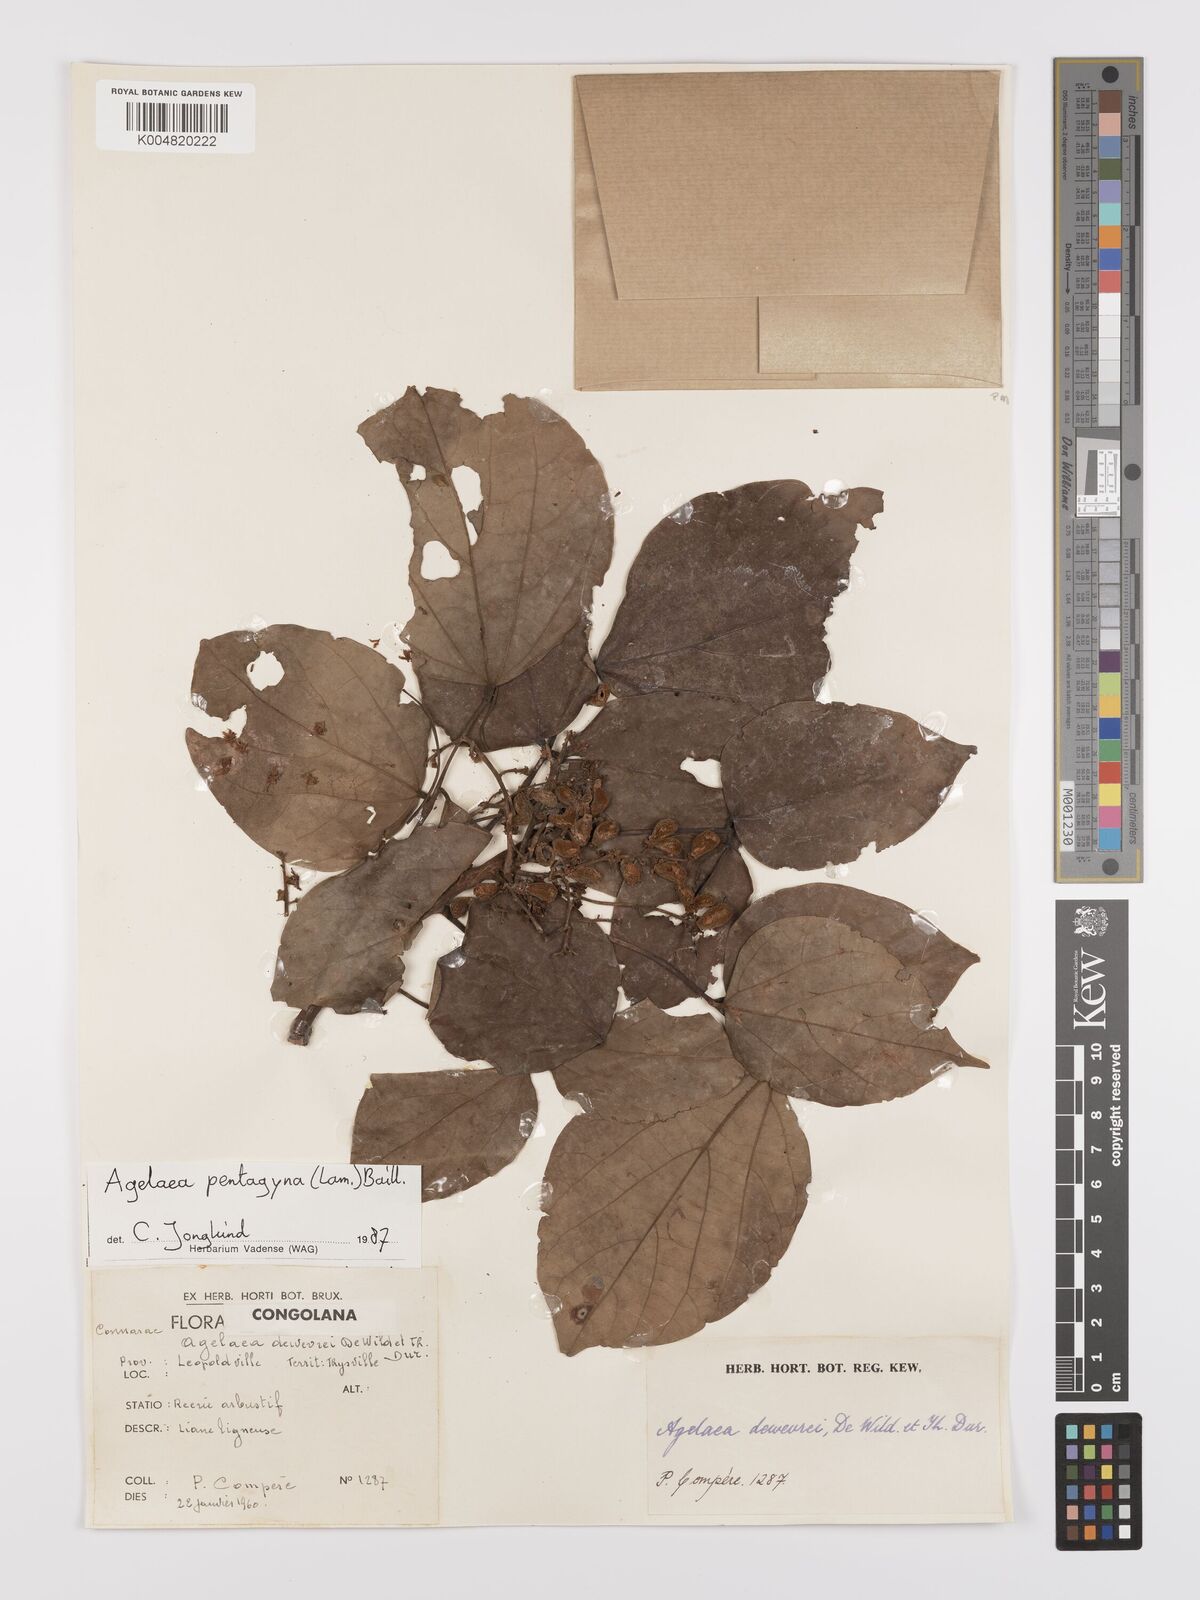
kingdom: Plantae
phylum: Tracheophyta
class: Magnoliopsida
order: Oxalidales
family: Connaraceae
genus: Agelaea
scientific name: Agelaea pentagyna
